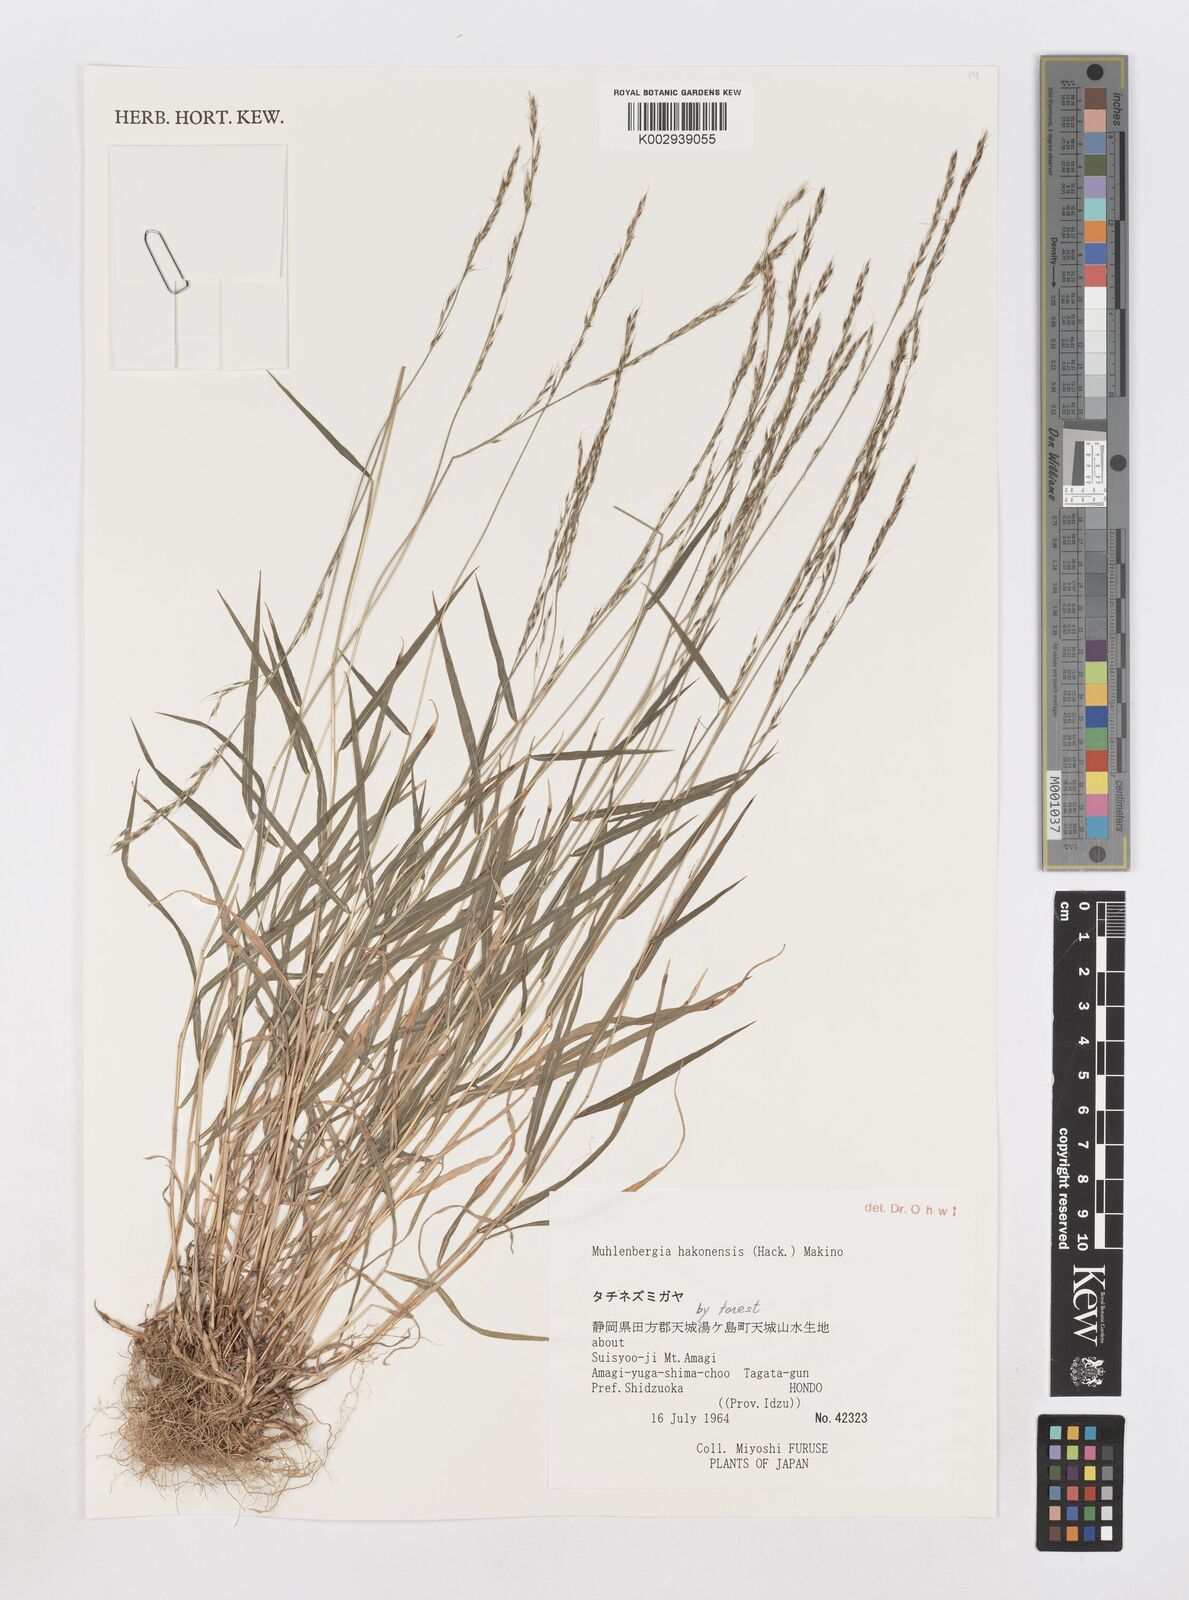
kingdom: Plantae
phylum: Tracheophyta
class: Liliopsida
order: Poales
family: Poaceae
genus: Muhlenbergia
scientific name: Muhlenbergia hakonensis
